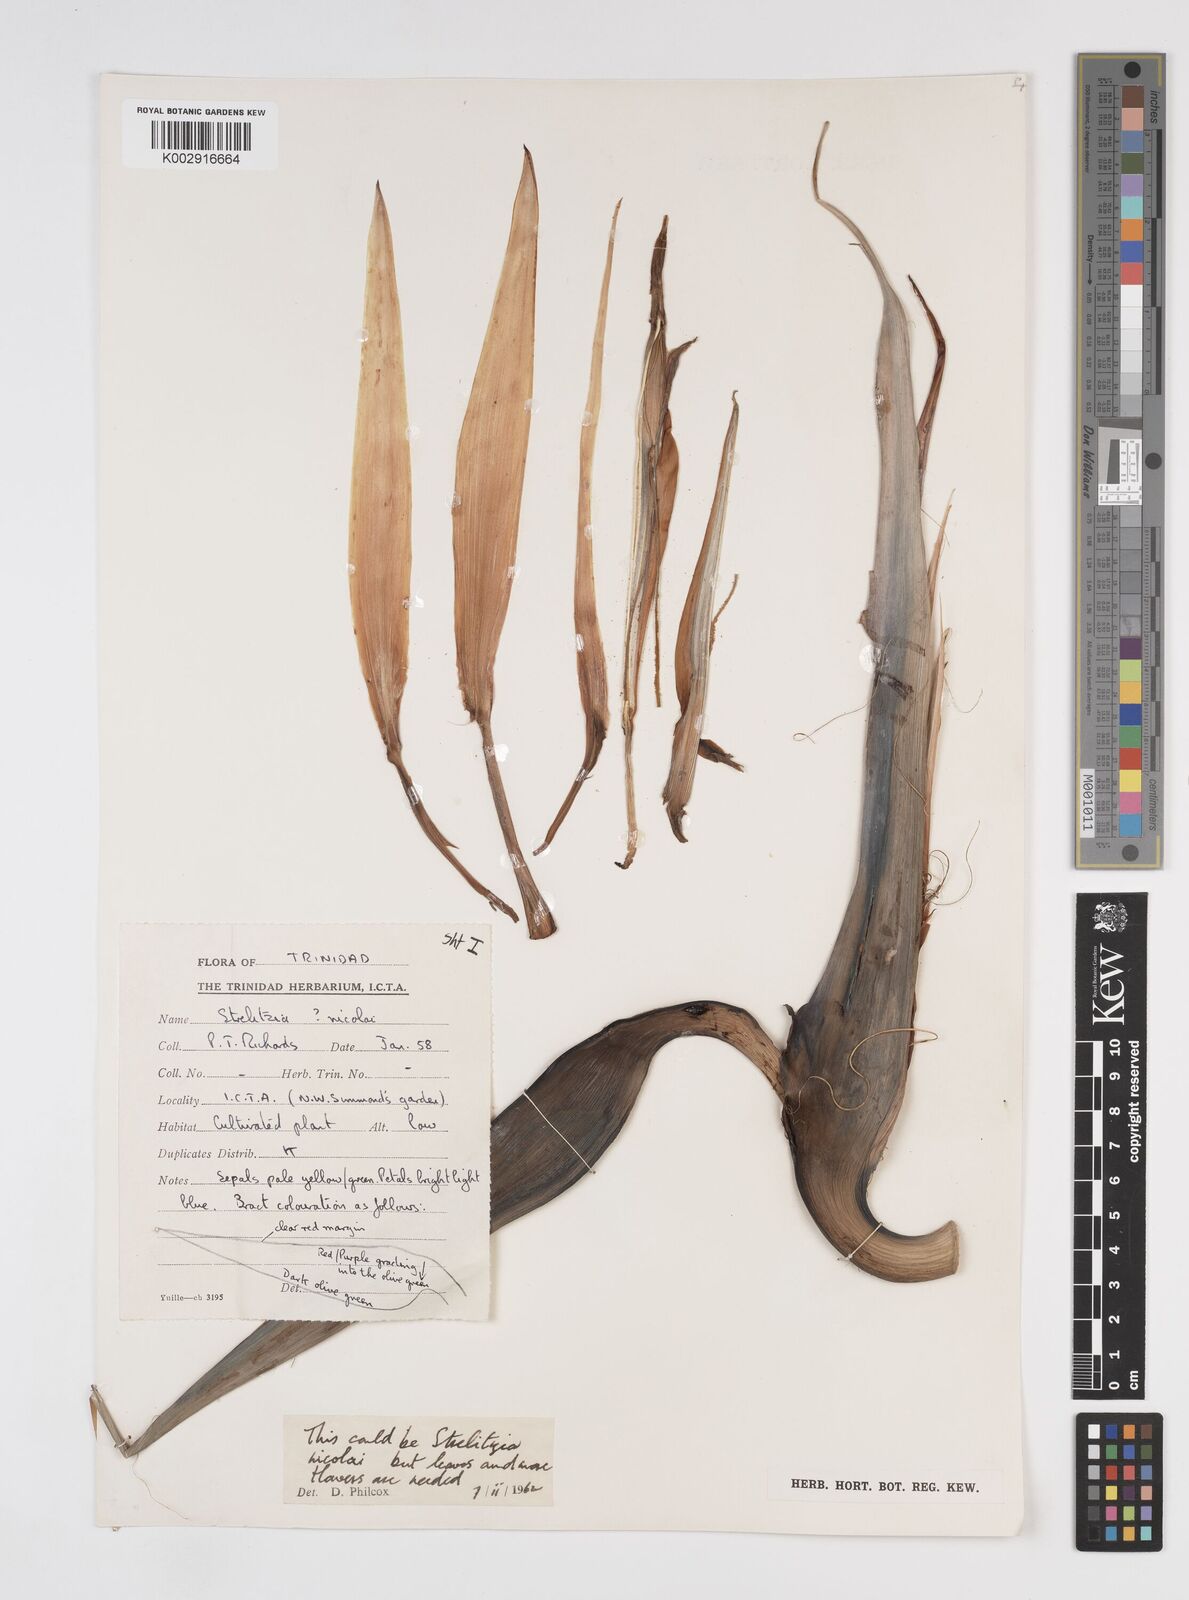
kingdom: Plantae
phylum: Tracheophyta
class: Liliopsida
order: Zingiberales
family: Strelitziaceae
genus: Strelitzia
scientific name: Strelitzia nicolai
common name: Bird-of-paradise tree
